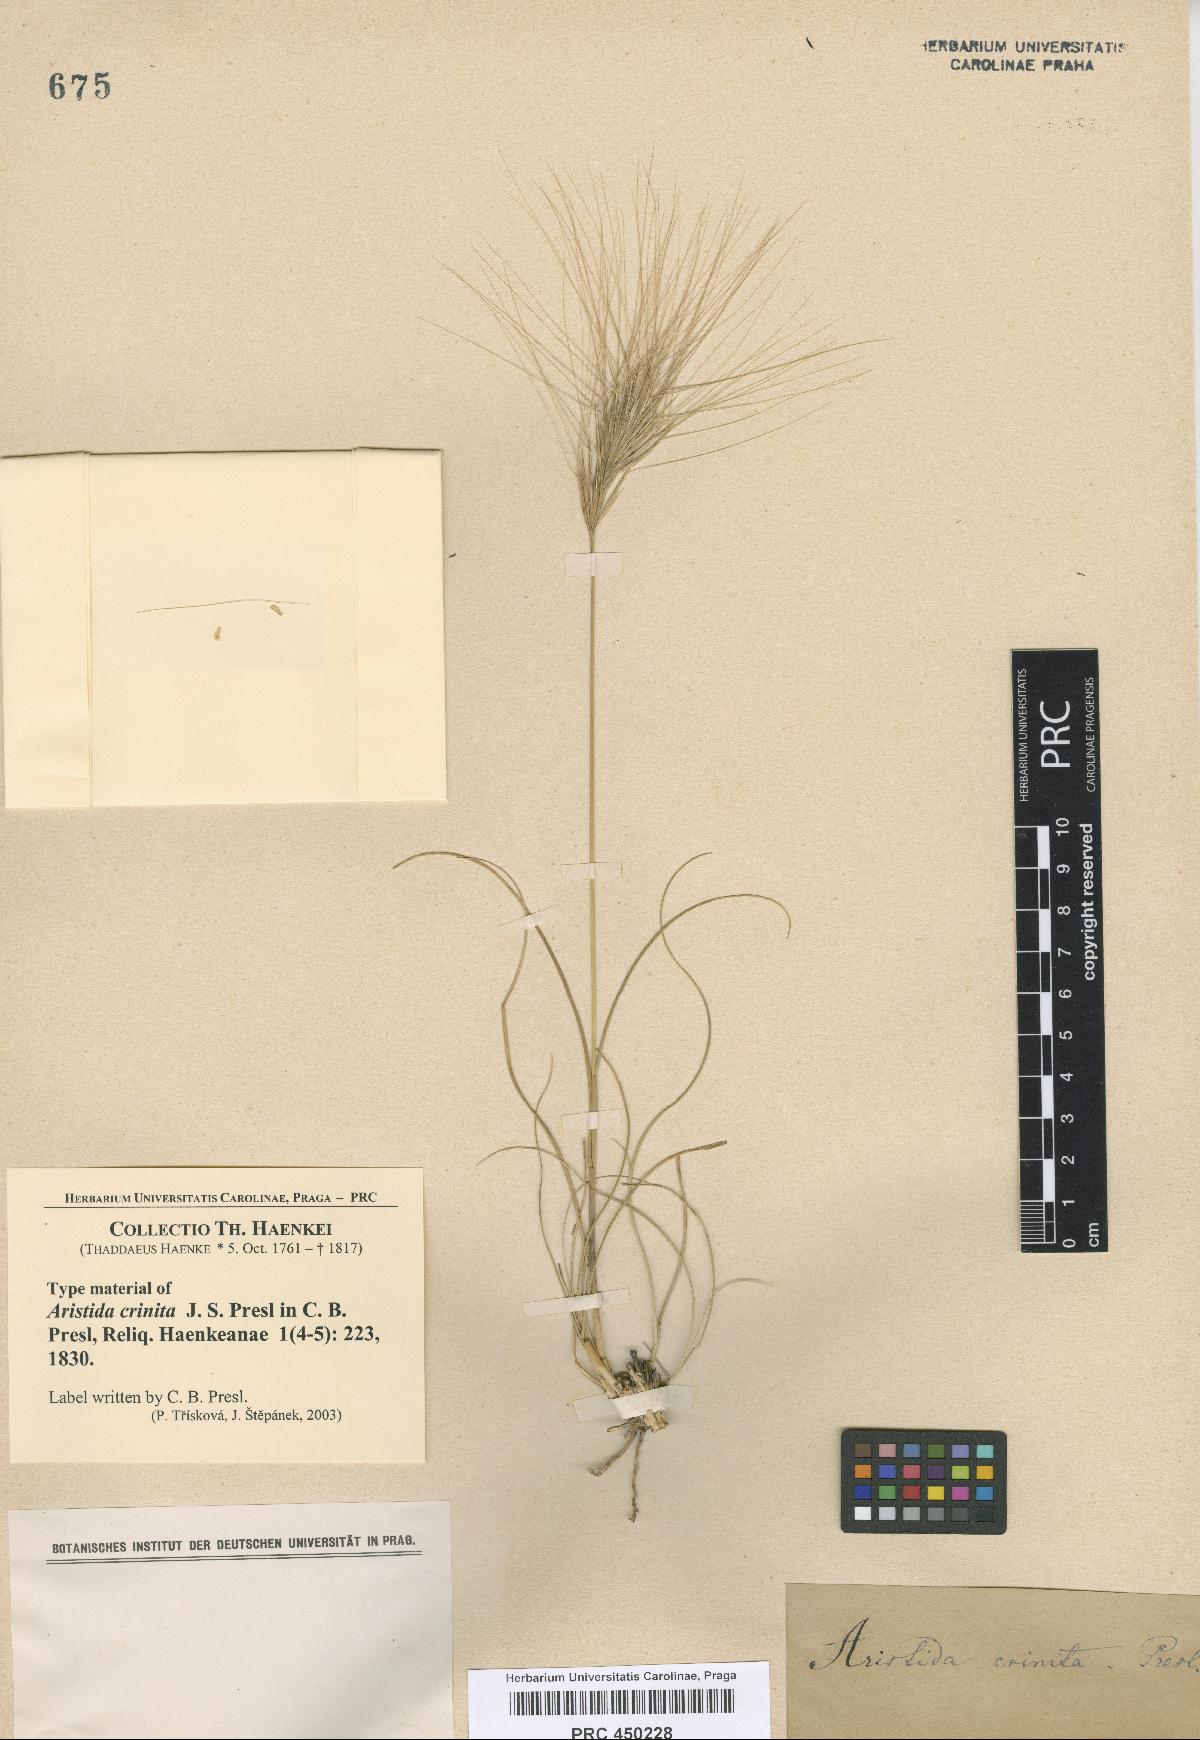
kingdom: Plantae
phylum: Tracheophyta
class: Liliopsida
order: Poales
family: Poaceae
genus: Aristida
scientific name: Aristida murina
